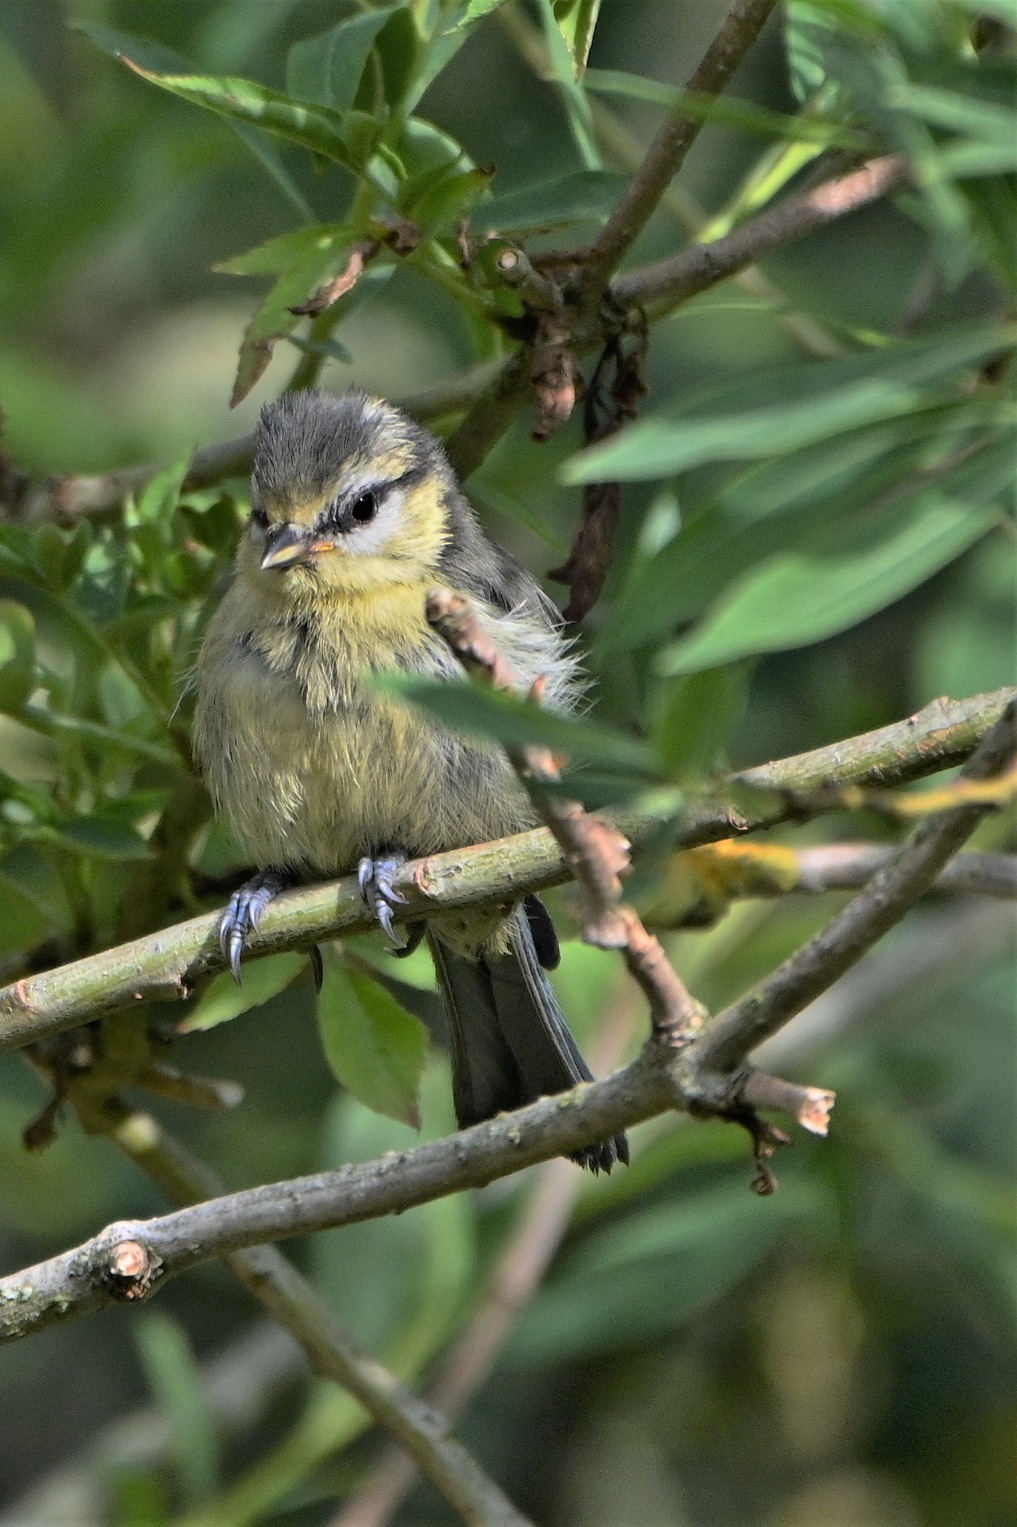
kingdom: Animalia
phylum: Chordata
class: Aves
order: Passeriformes
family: Paridae
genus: Cyanistes
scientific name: Cyanistes caeruleus
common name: Blåmejse
